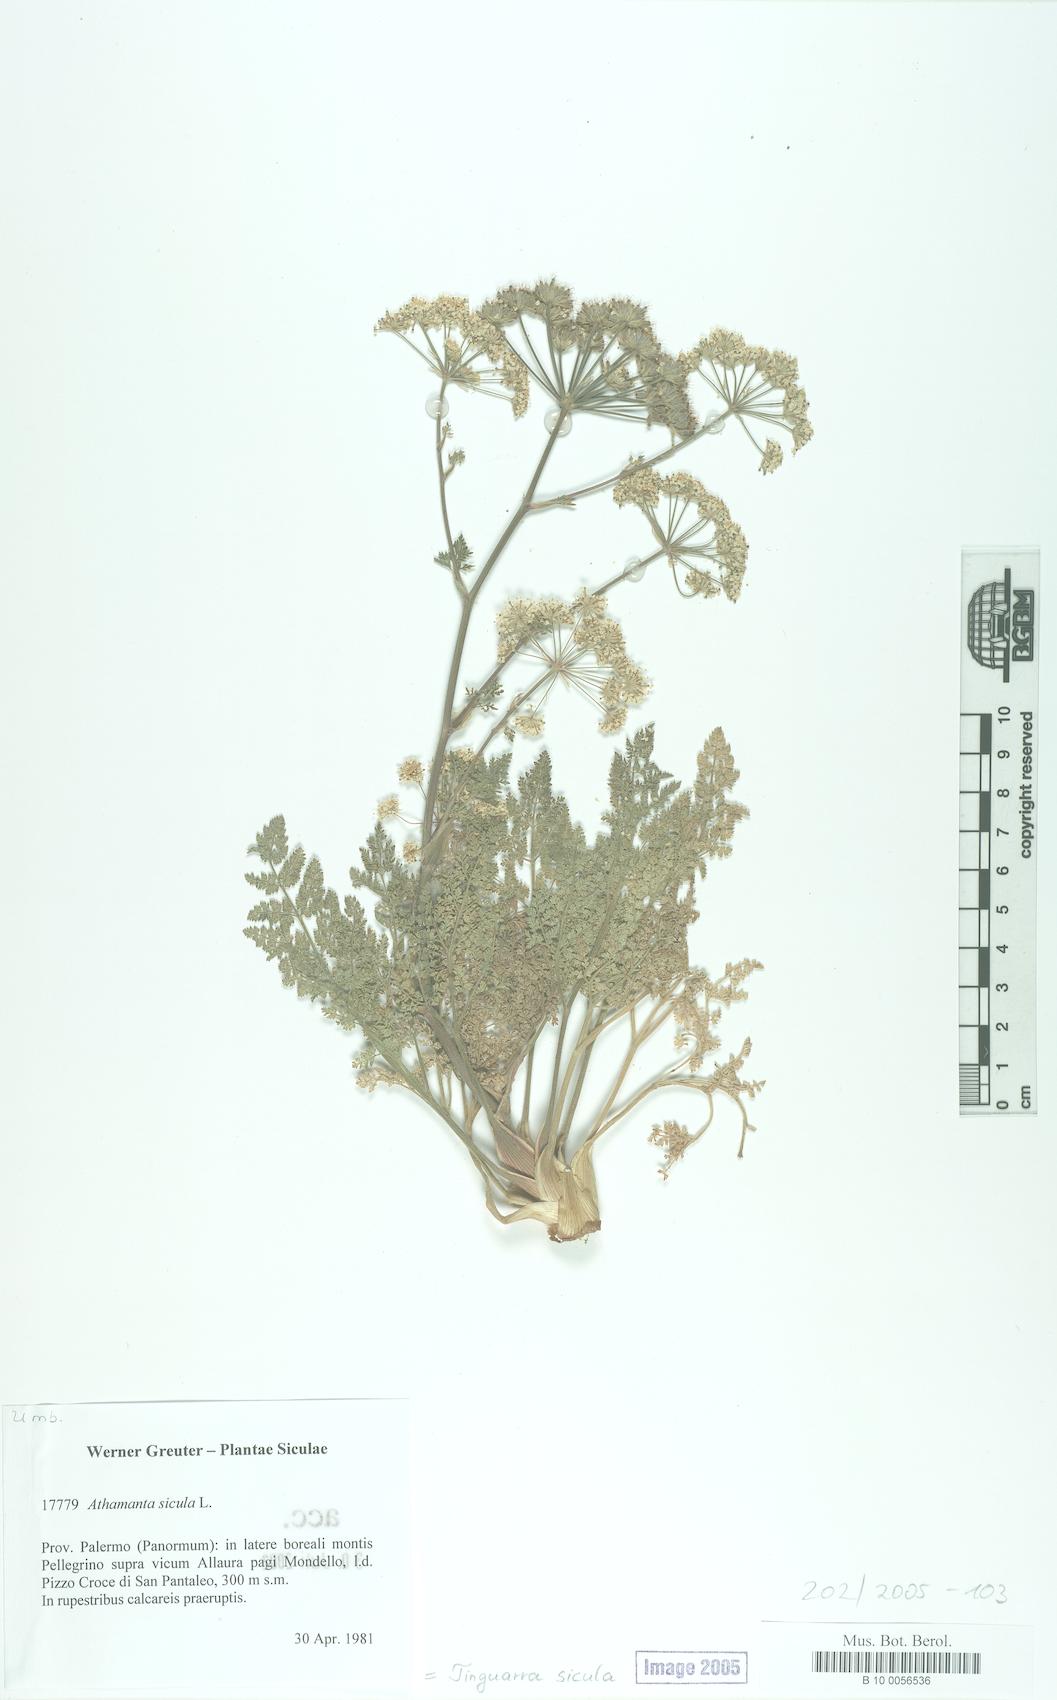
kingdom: Plantae
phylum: Tracheophyta
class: Magnoliopsida
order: Apiales
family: Apiaceae
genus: Athamanta
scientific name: Athamanta sicula
